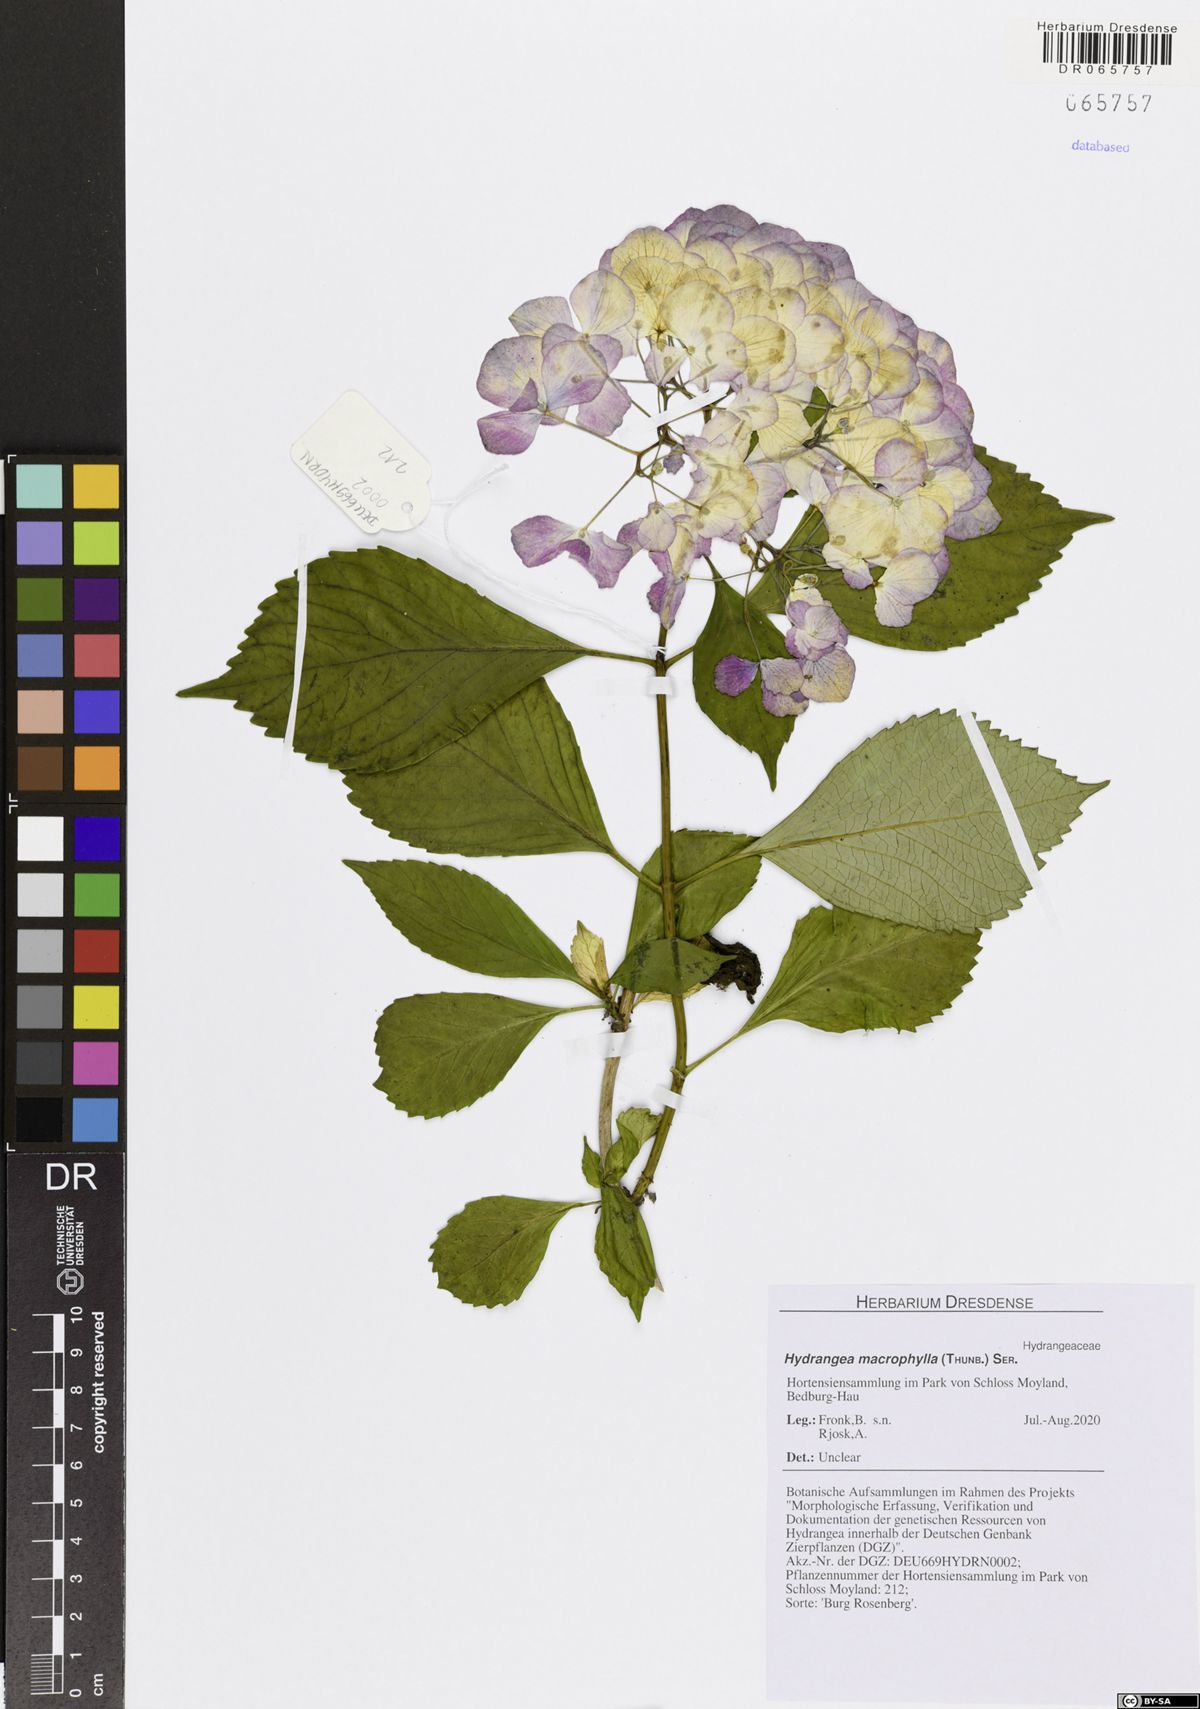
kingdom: Plantae
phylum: Tracheophyta
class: Magnoliopsida
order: Cornales
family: Hydrangeaceae
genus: Hydrangea
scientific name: Hydrangea macrophylla
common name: Hydrangea
